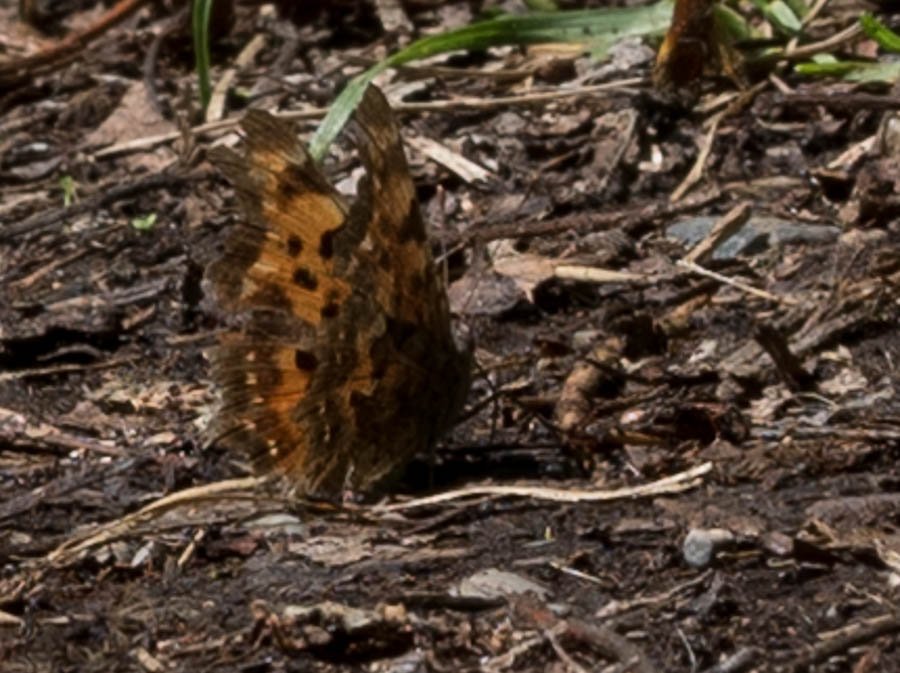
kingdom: Animalia
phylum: Arthropoda
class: Insecta
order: Lepidoptera
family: Nymphalidae
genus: Polygonia
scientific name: Polygonia faunus
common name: Green Comma
